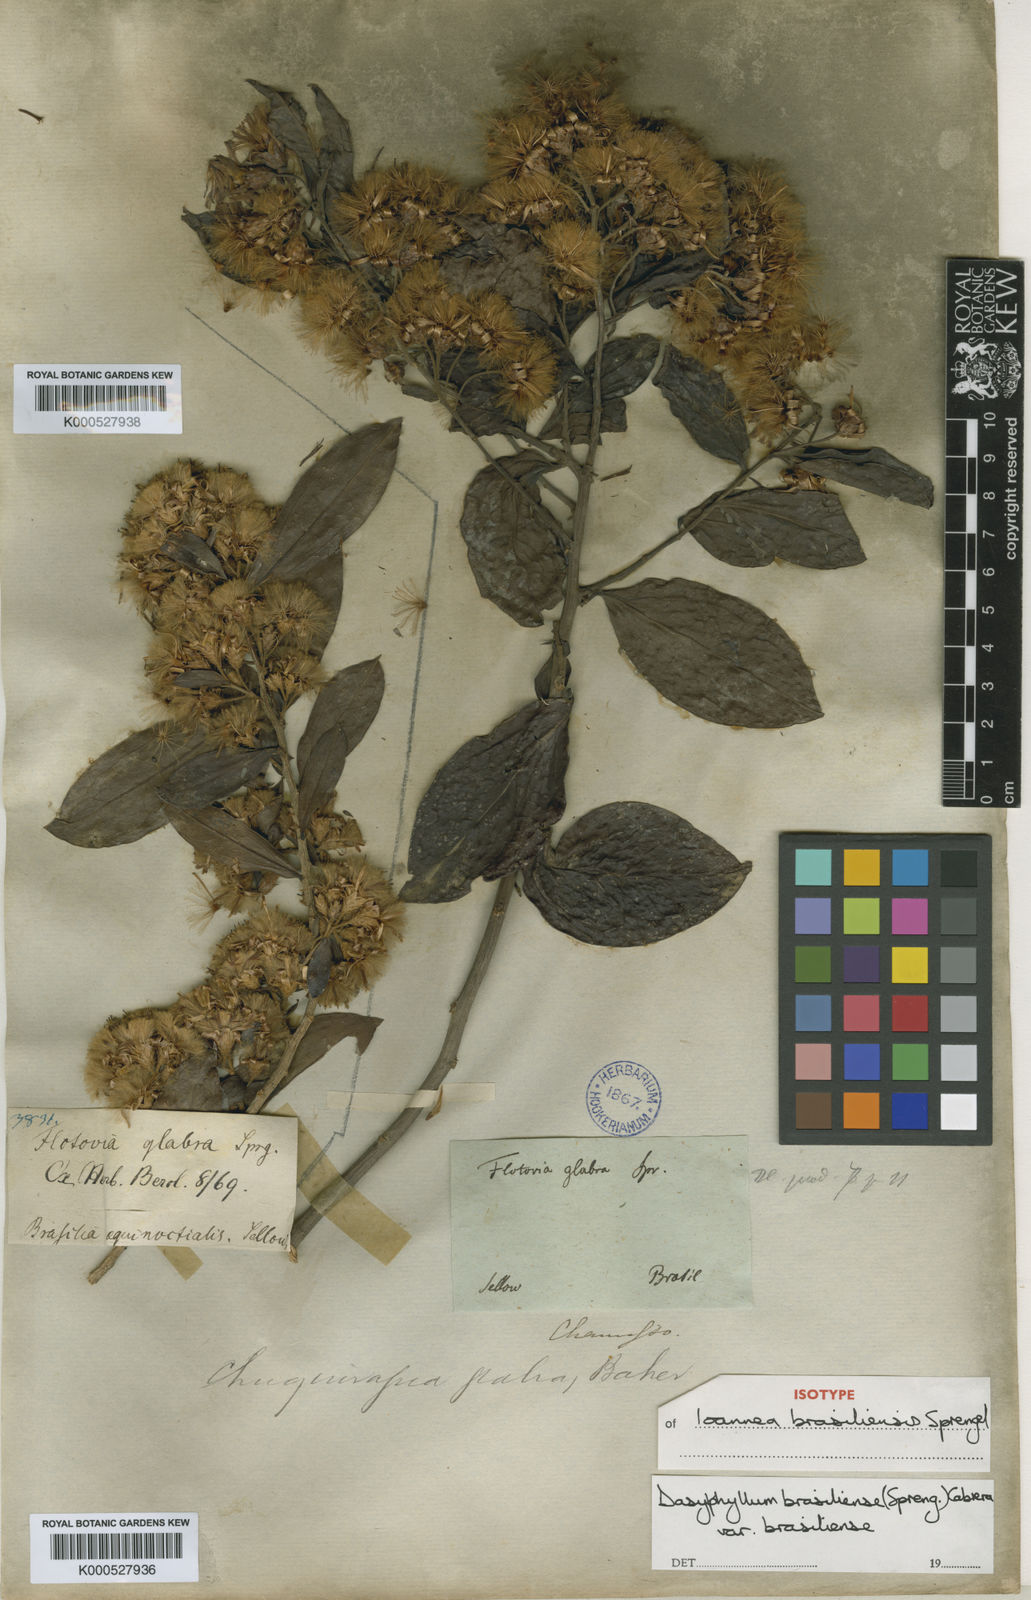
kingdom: Plantae
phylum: Tracheophyta
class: Magnoliopsida
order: Asterales
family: Asteraceae
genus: Dasyphyllum
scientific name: Dasyphyllum brasiliense
